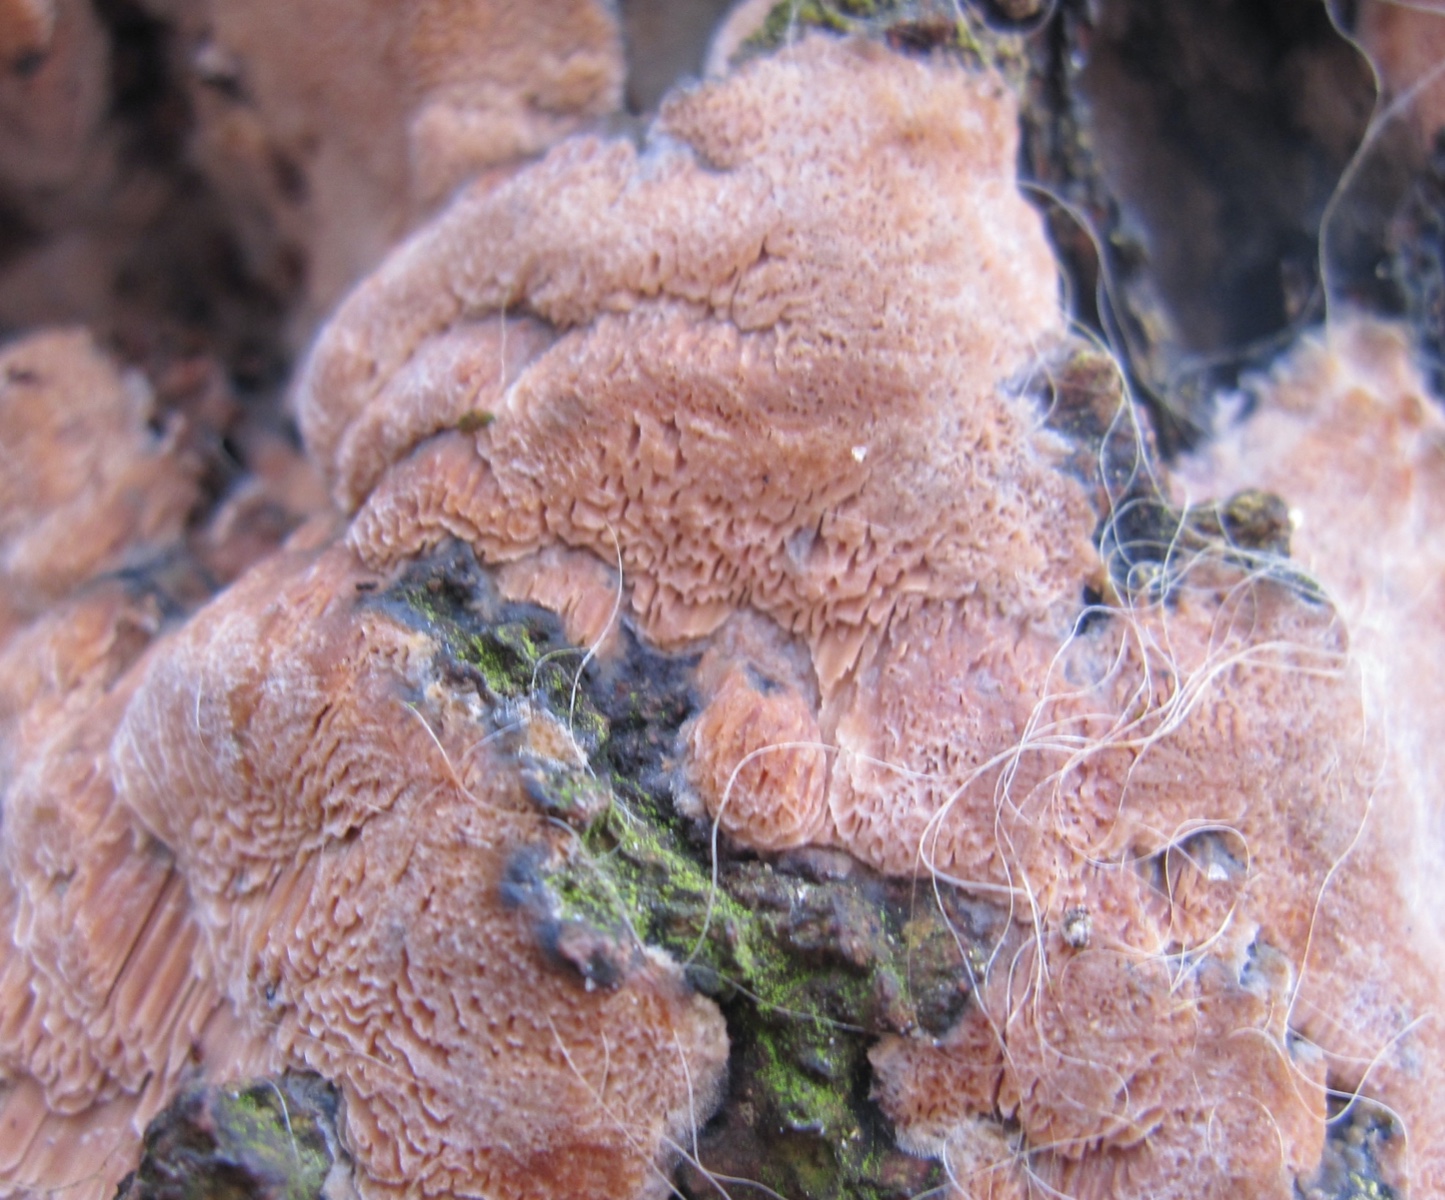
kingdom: Fungi
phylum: Basidiomycota
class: Agaricomycetes
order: Polyporales
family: Meruliaceae
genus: Mycoacia
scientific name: Mycoacia gilvescens
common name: rosa pastelporesvamp
